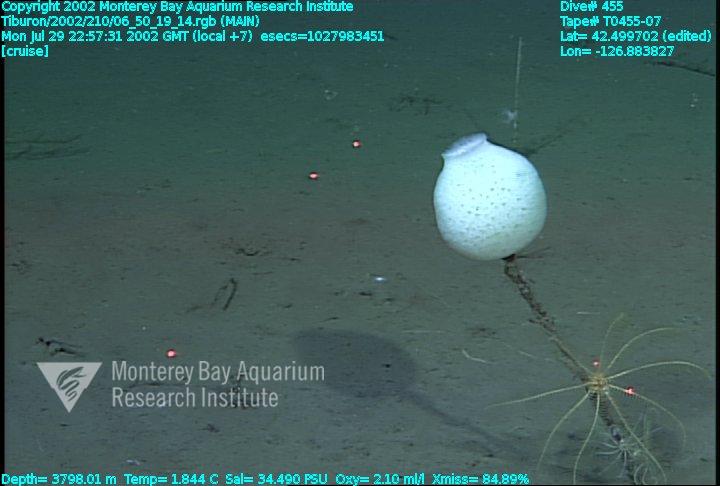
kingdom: Animalia
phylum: Porifera
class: Hexactinellida
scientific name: Hexactinellida
